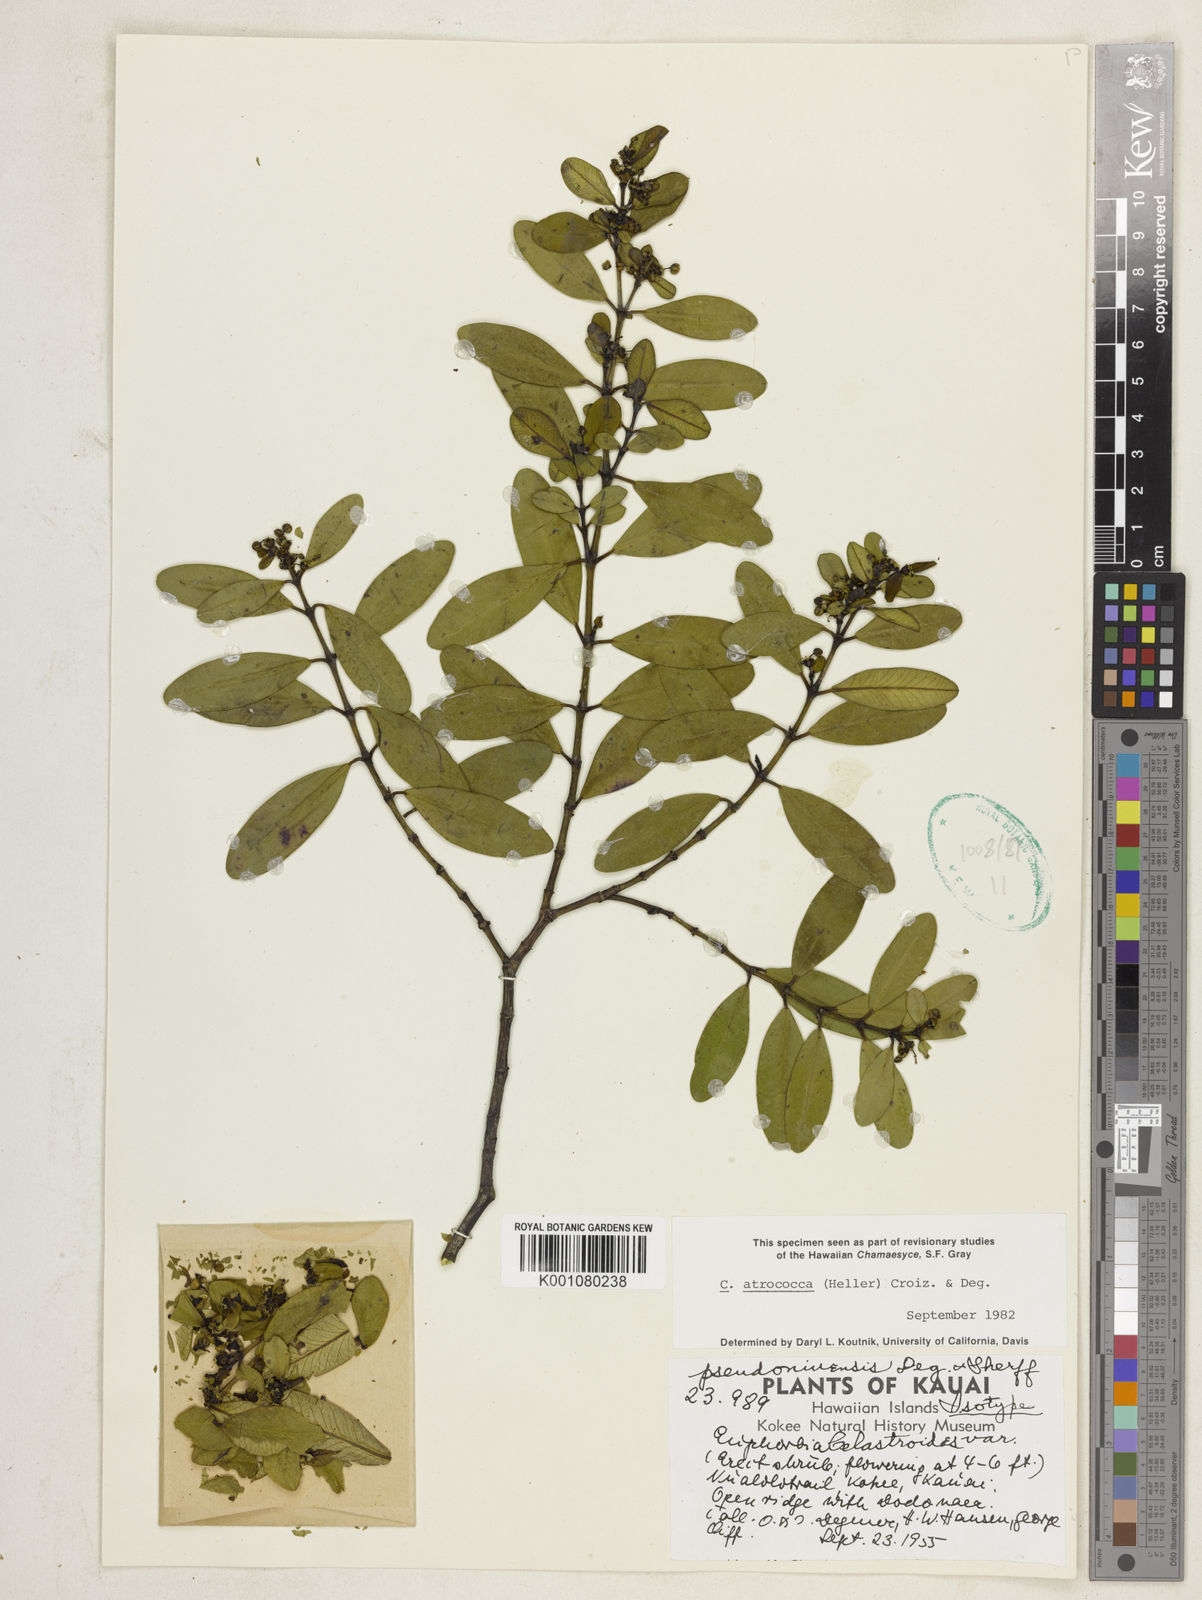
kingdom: Plantae
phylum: Tracheophyta
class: Magnoliopsida
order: Malpighiales
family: Euphorbiaceae
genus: Euphorbia
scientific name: Euphorbia atrococca
